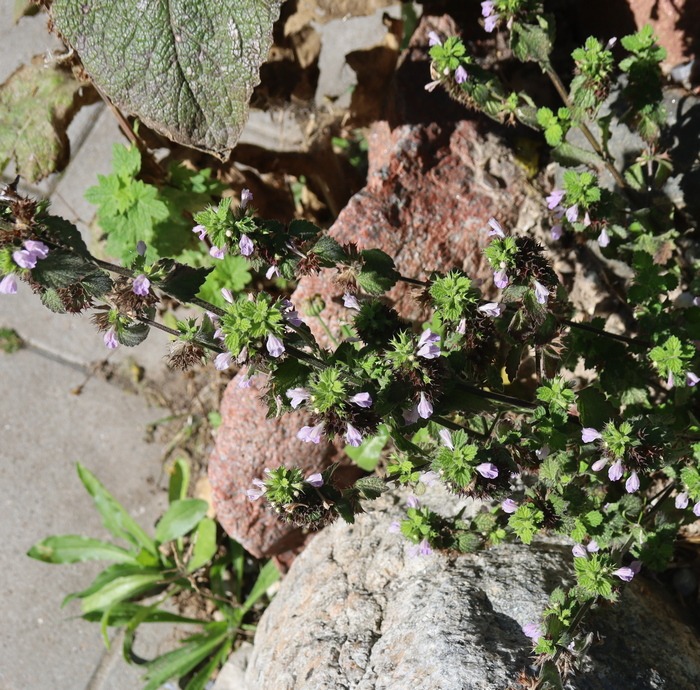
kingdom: Plantae
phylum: Tracheophyta
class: Magnoliopsida
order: Lamiales
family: Lamiaceae
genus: Ballota
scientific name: Ballota nigra
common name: Tandbæger
